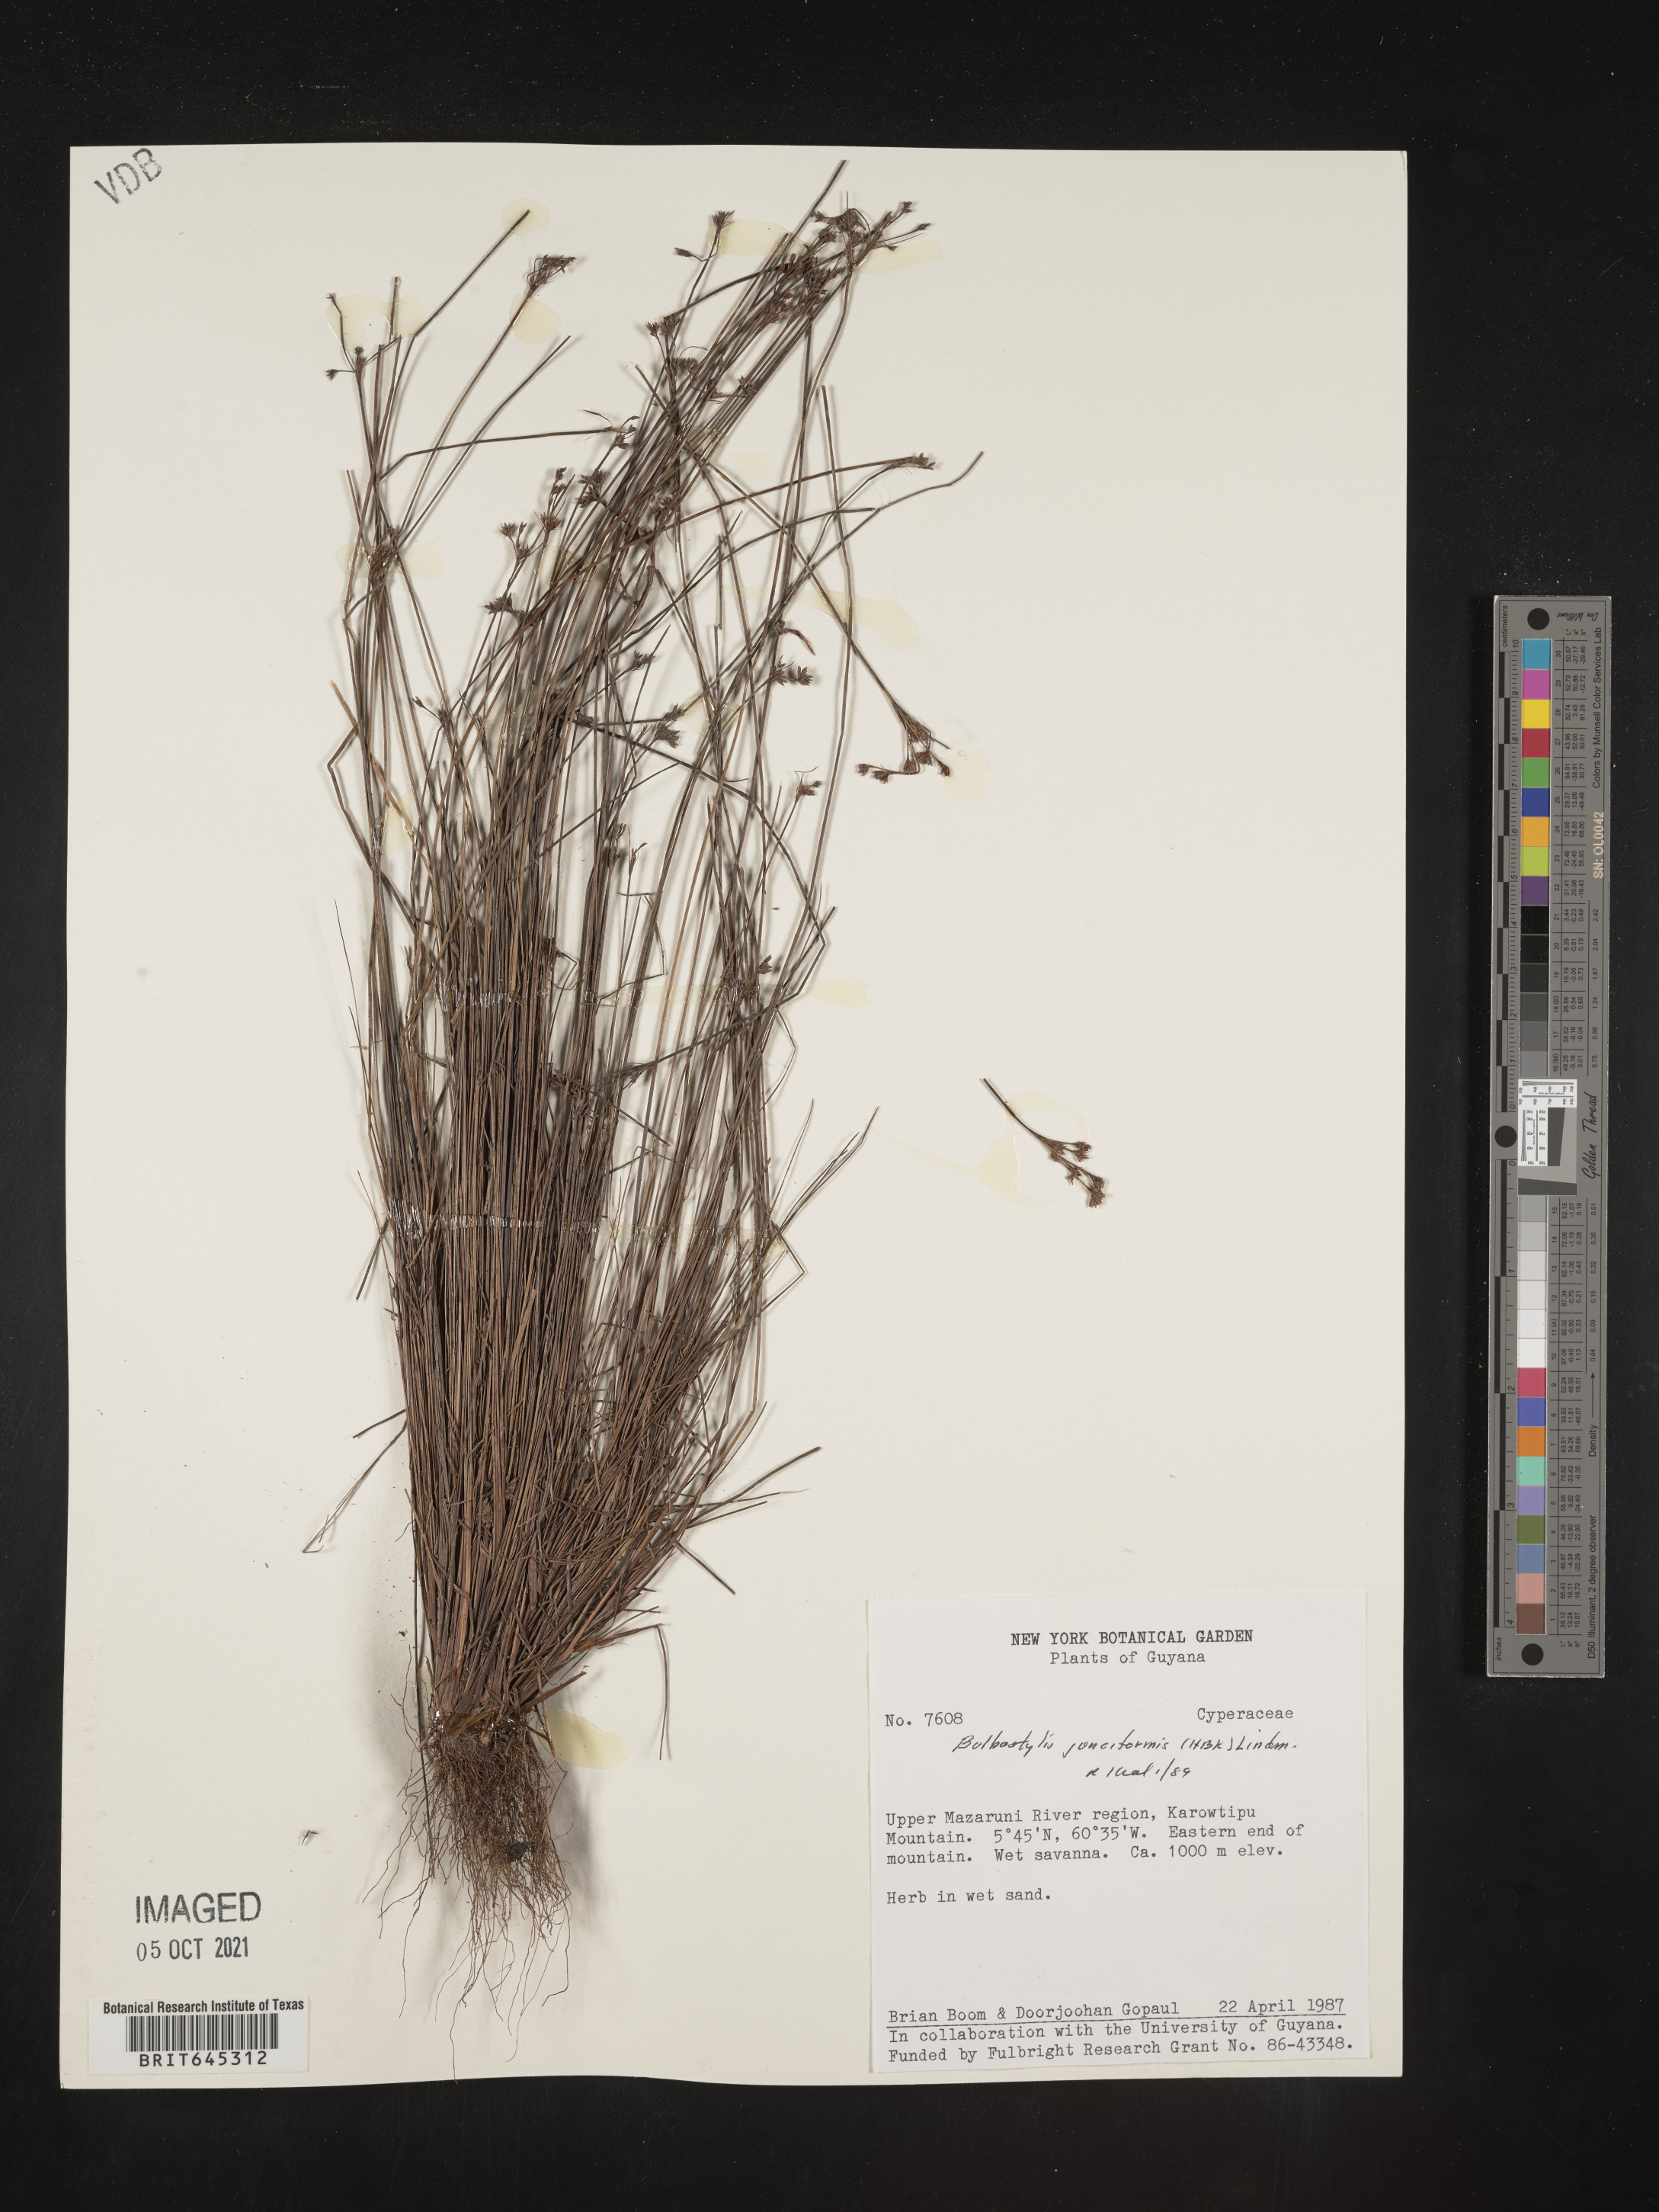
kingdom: Plantae
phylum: Tracheophyta
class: Liliopsida
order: Poales
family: Cyperaceae
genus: Bulbostylis
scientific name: Bulbostylis junciformis
